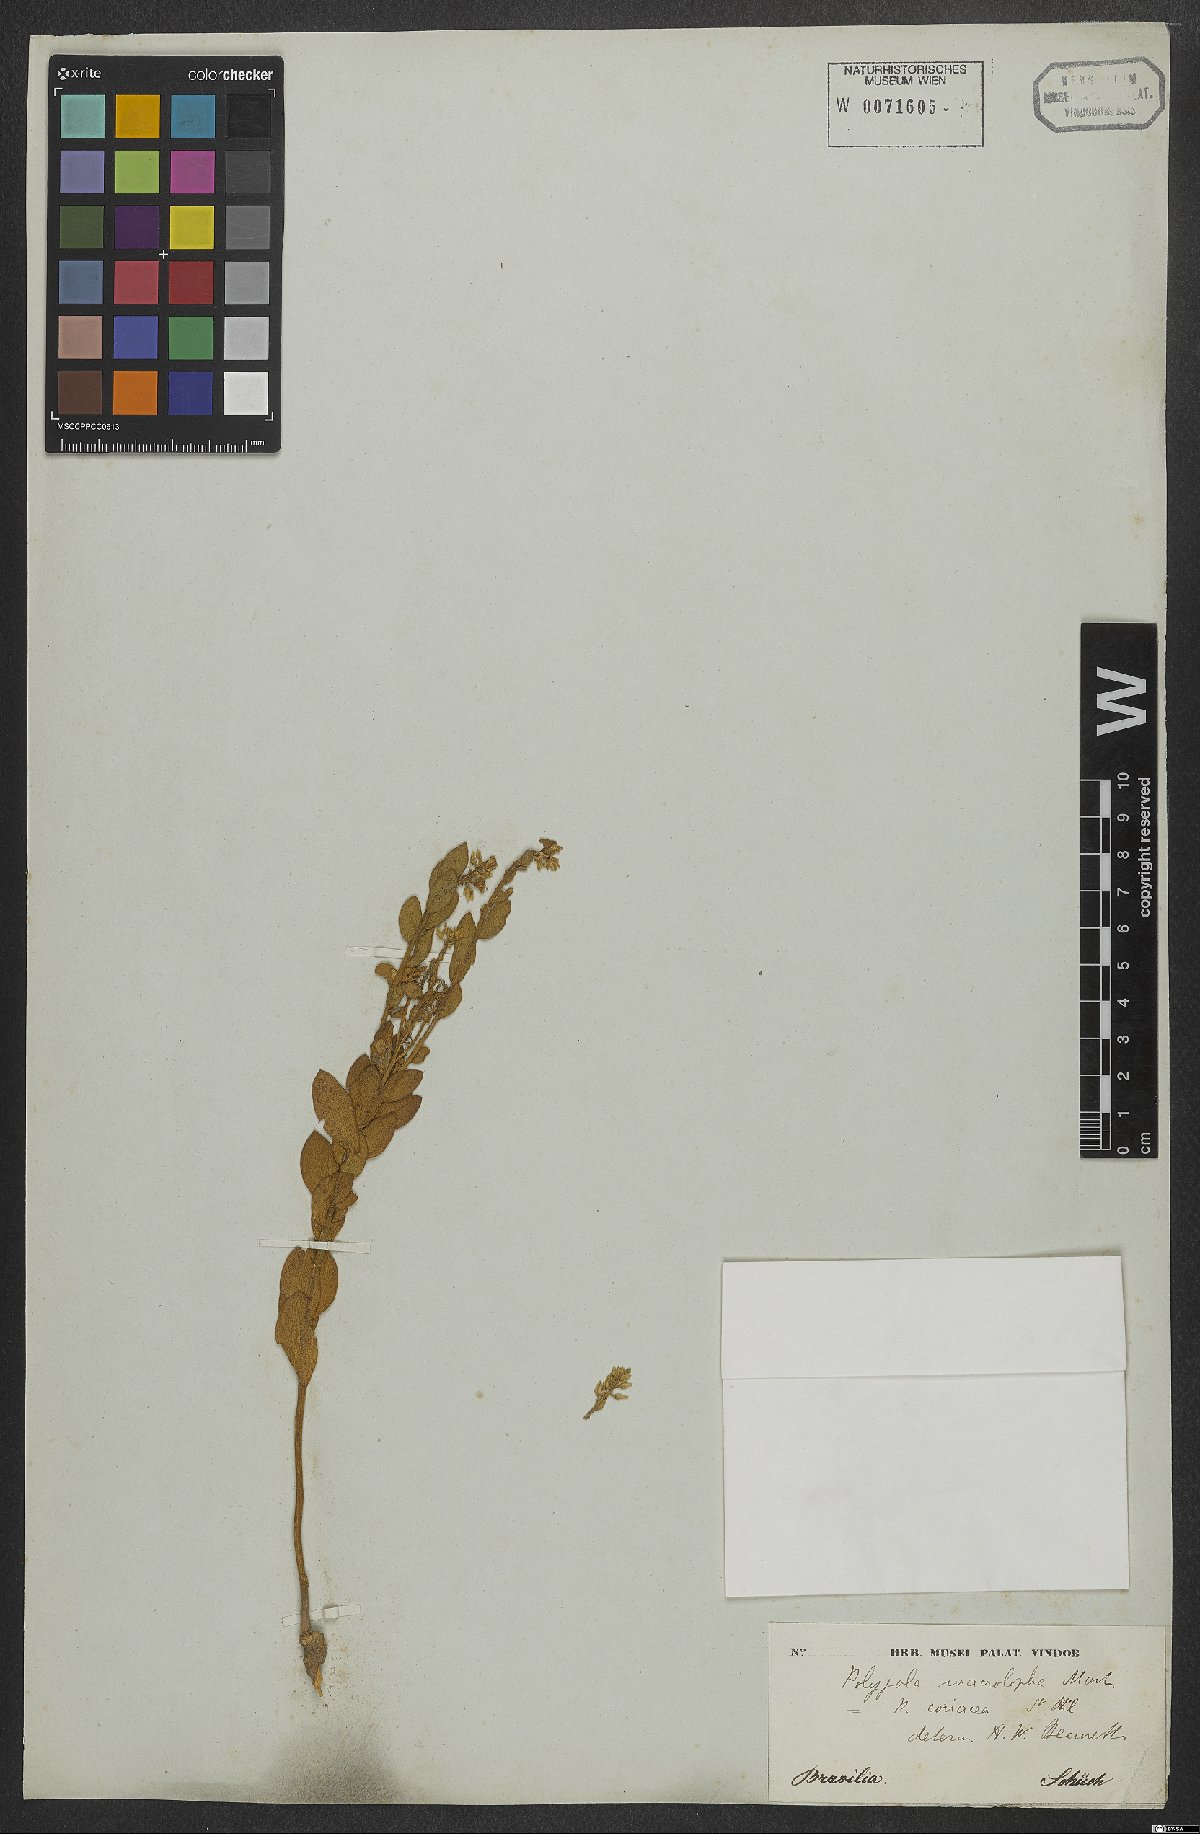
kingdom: Plantae
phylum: Tracheophyta
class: Magnoliopsida
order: Fabales
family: Polygalaceae
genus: Polygala
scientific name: Polygala franchetii
